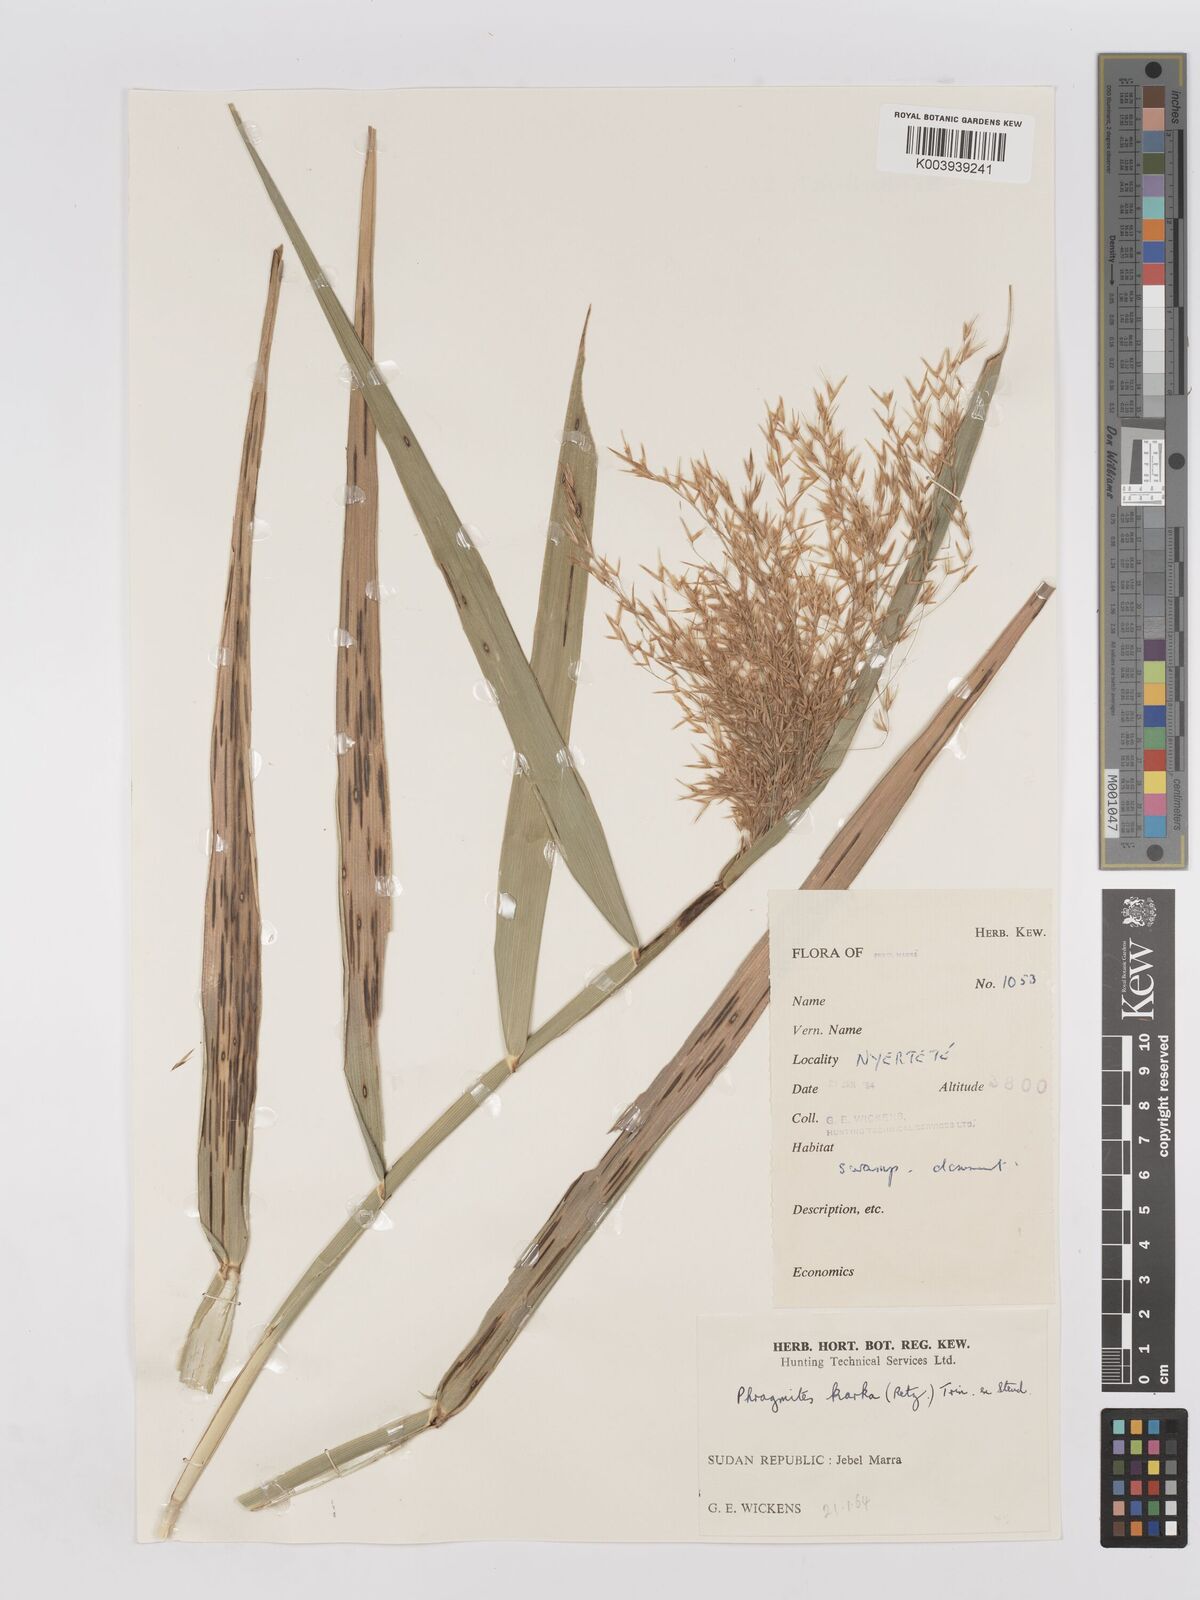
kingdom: Plantae
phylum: Tracheophyta
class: Liliopsida
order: Poales
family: Poaceae
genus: Phragmites
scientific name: Phragmites karka
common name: Tropical reed
